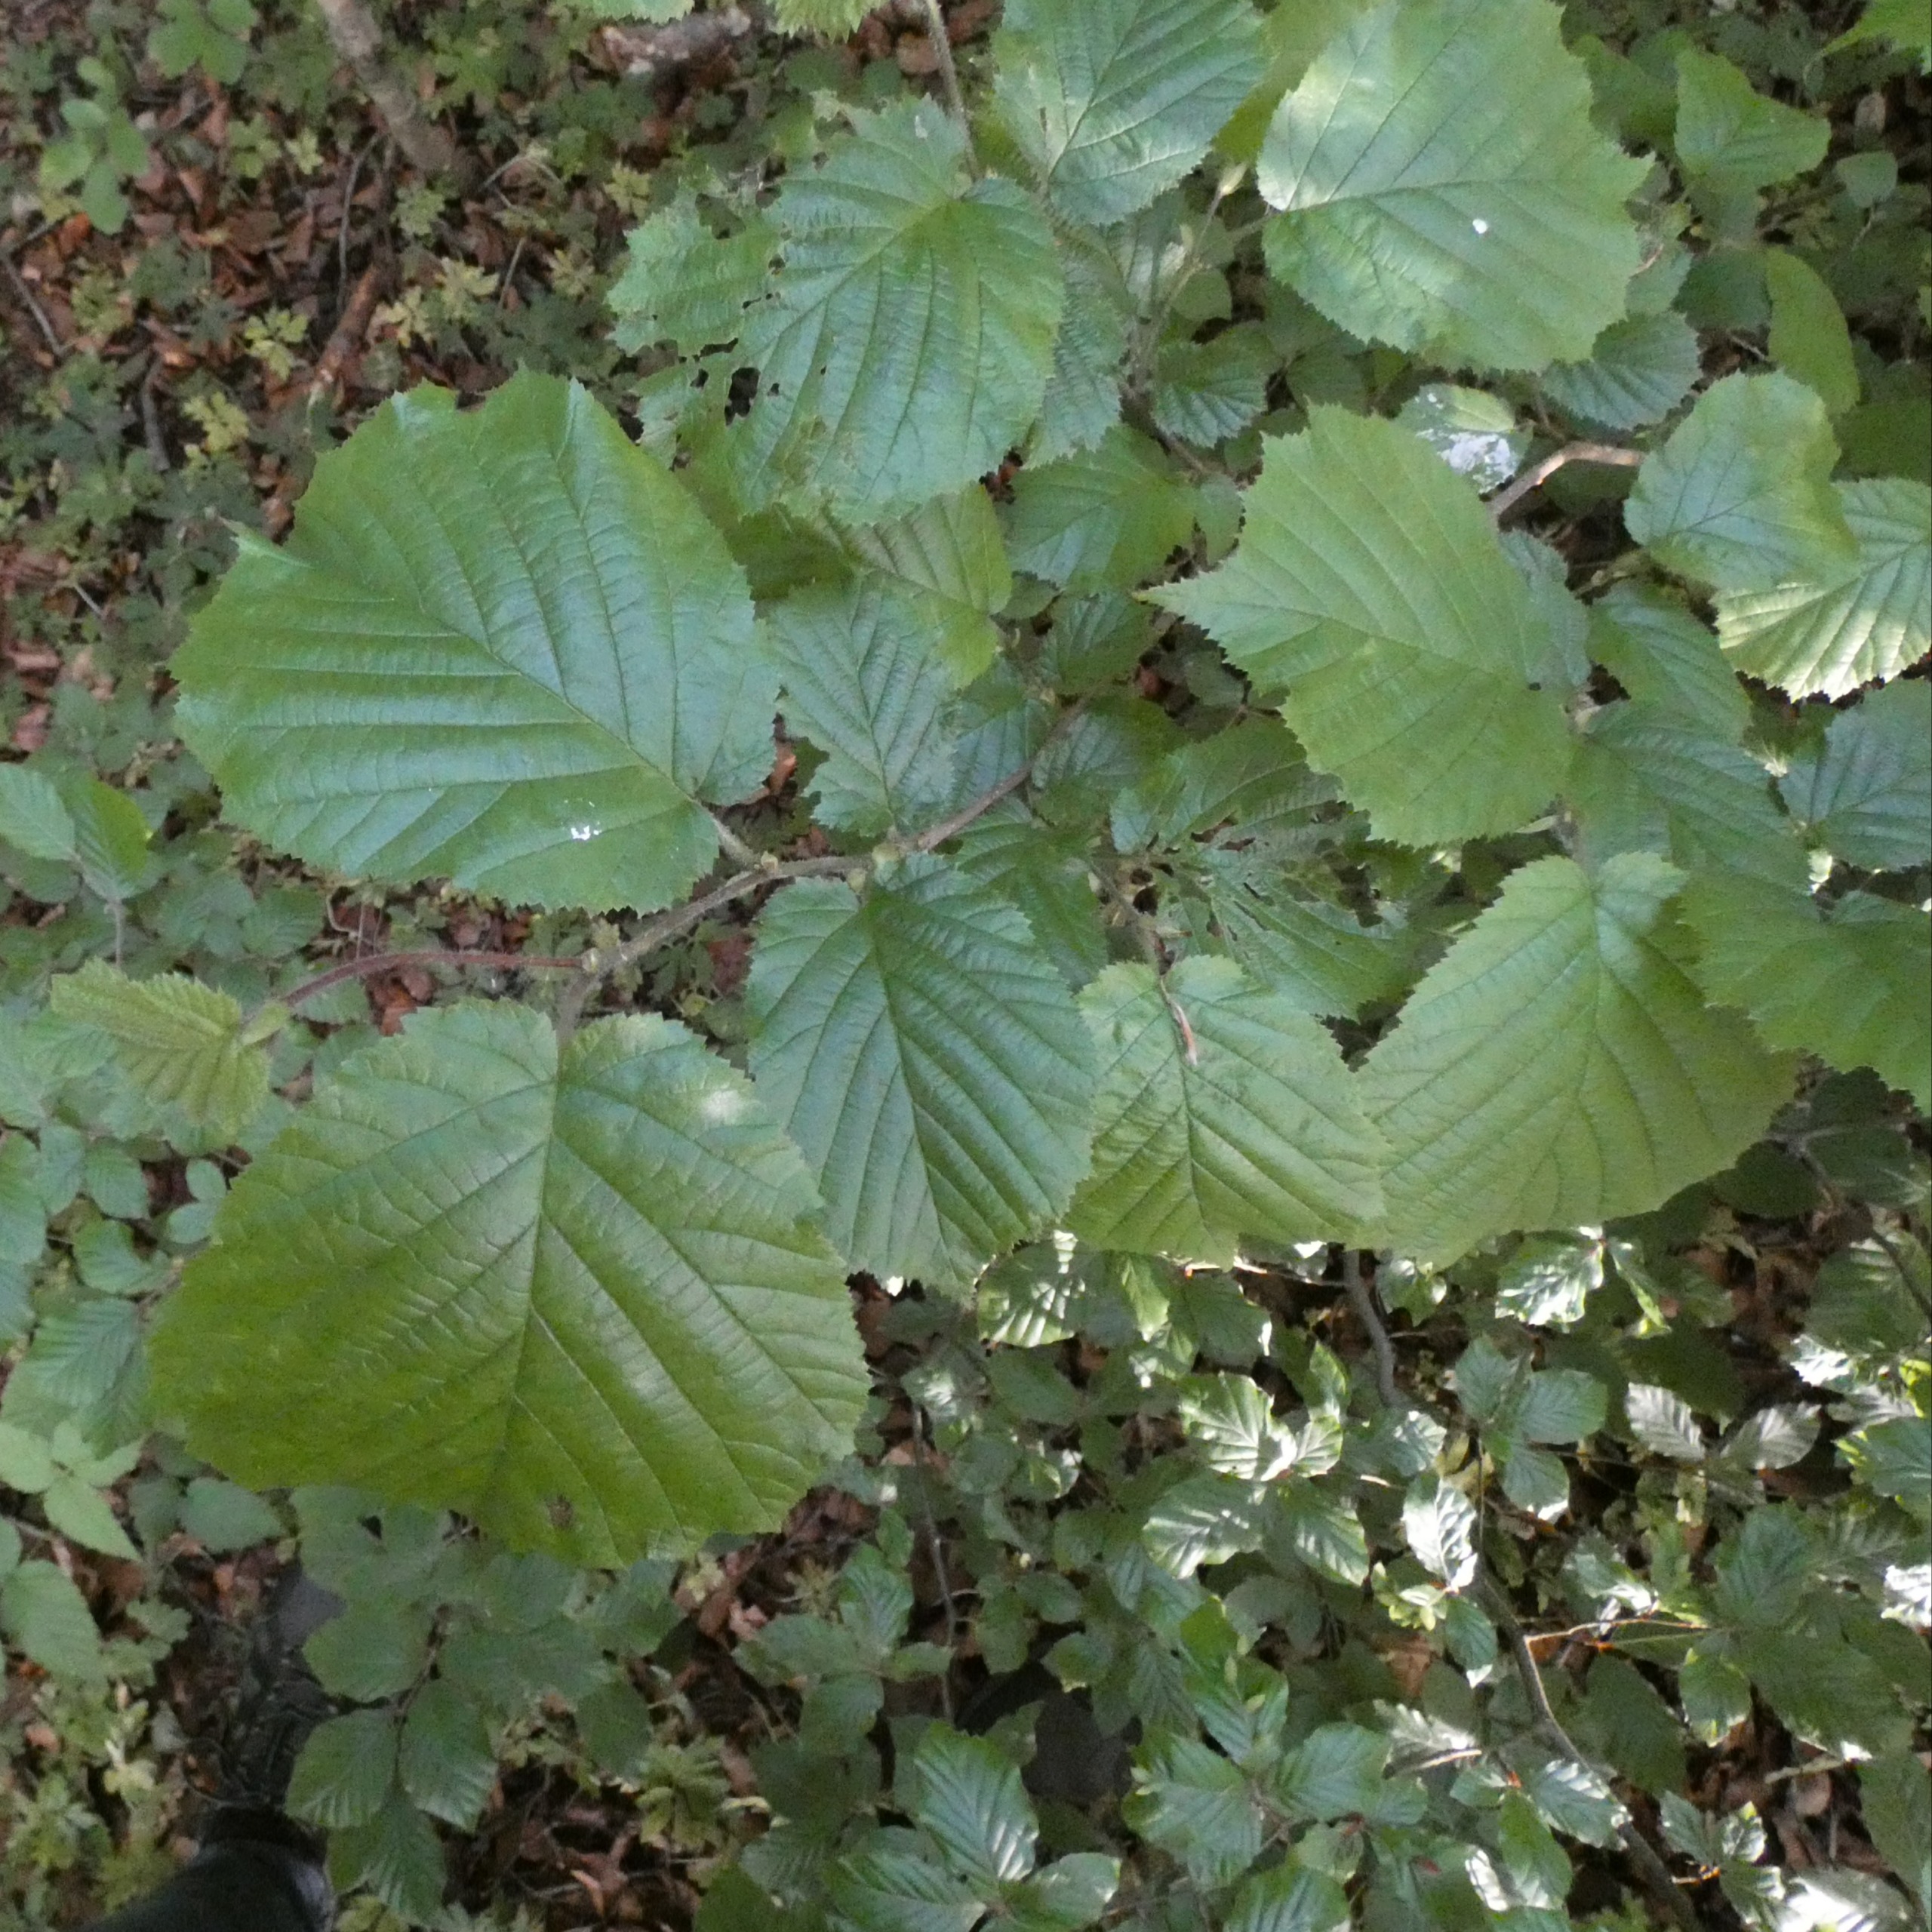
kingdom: Plantae
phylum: Tracheophyta
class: Magnoliopsida
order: Fagales
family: Betulaceae
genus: Corylus
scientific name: Corylus avellana
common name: Hassel
